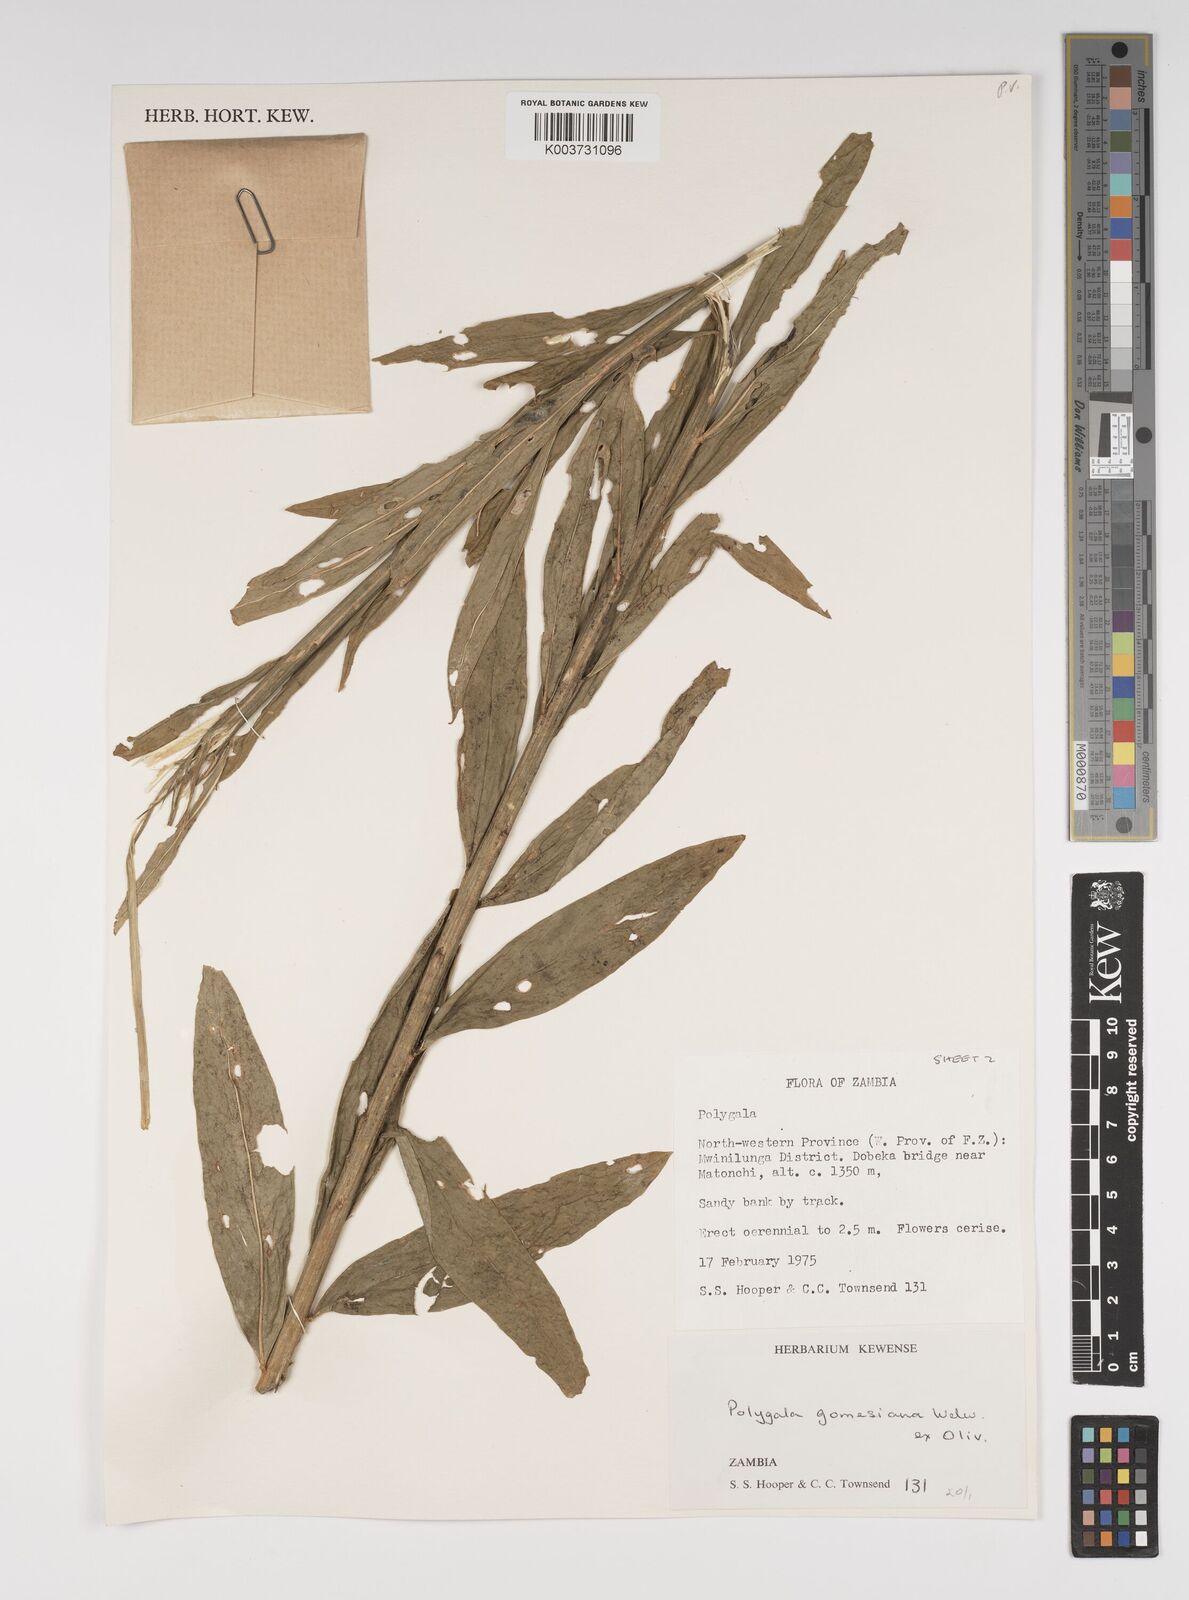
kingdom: Plantae
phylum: Tracheophyta
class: Magnoliopsida
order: Fabales
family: Polygalaceae
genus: Polygala
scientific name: Polygala gomesiana
